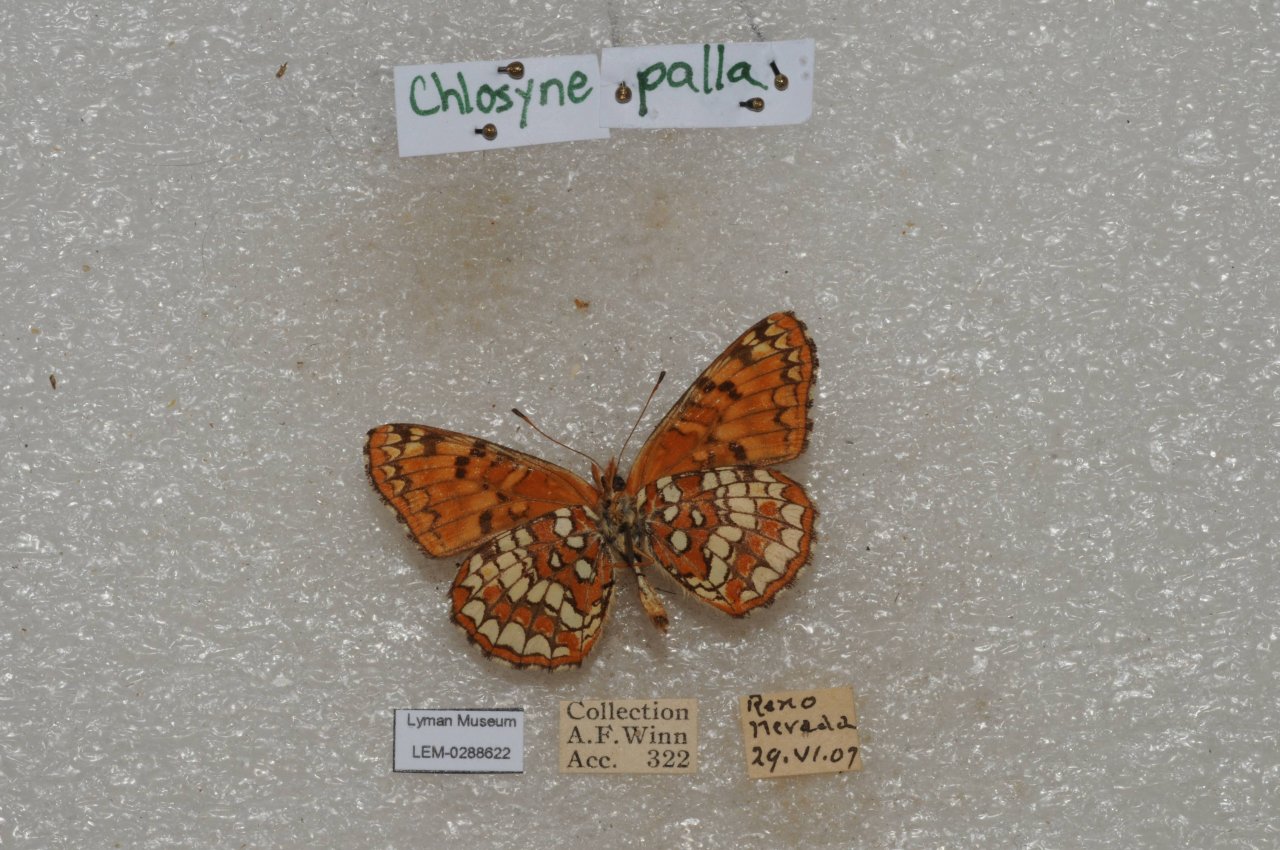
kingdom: Animalia
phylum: Arthropoda
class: Insecta
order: Lepidoptera
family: Nymphalidae
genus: Chlosyne
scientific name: Chlosyne palla
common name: Northern Checkerspot
